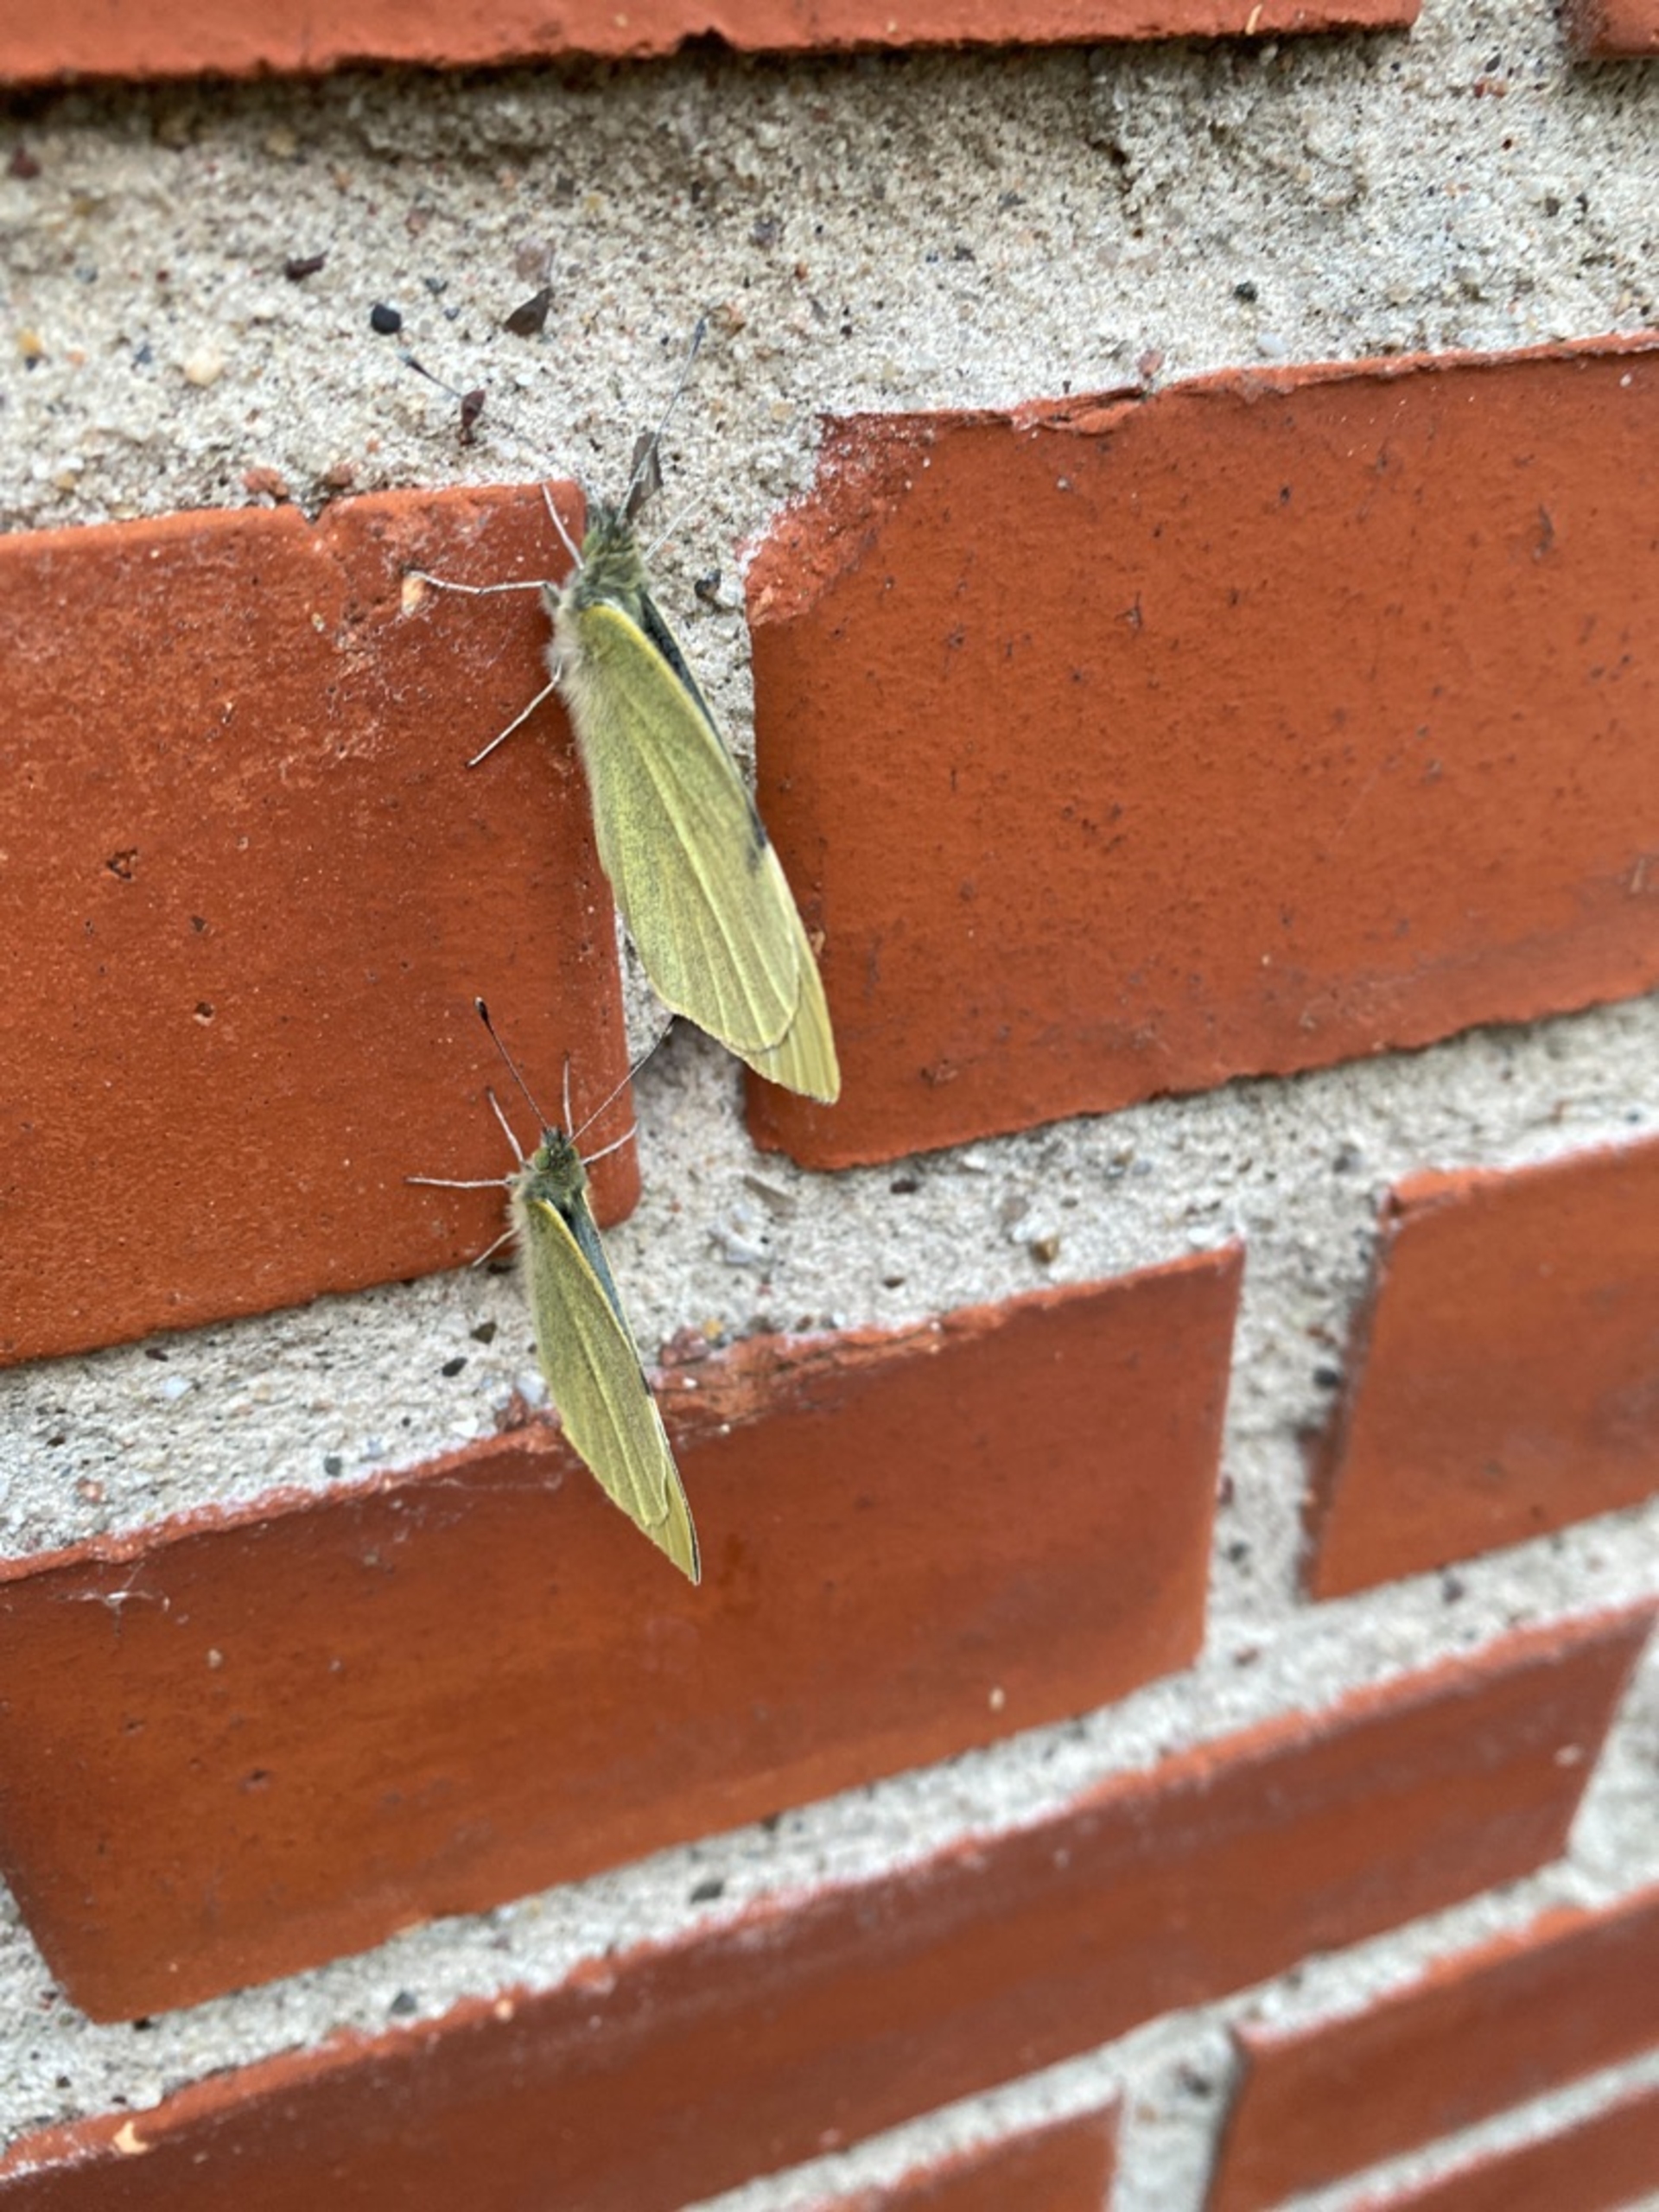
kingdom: Animalia
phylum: Arthropoda
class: Insecta
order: Lepidoptera
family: Pieridae
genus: Pieris
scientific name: Pieris rapae
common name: Lille kålsommerfugl
